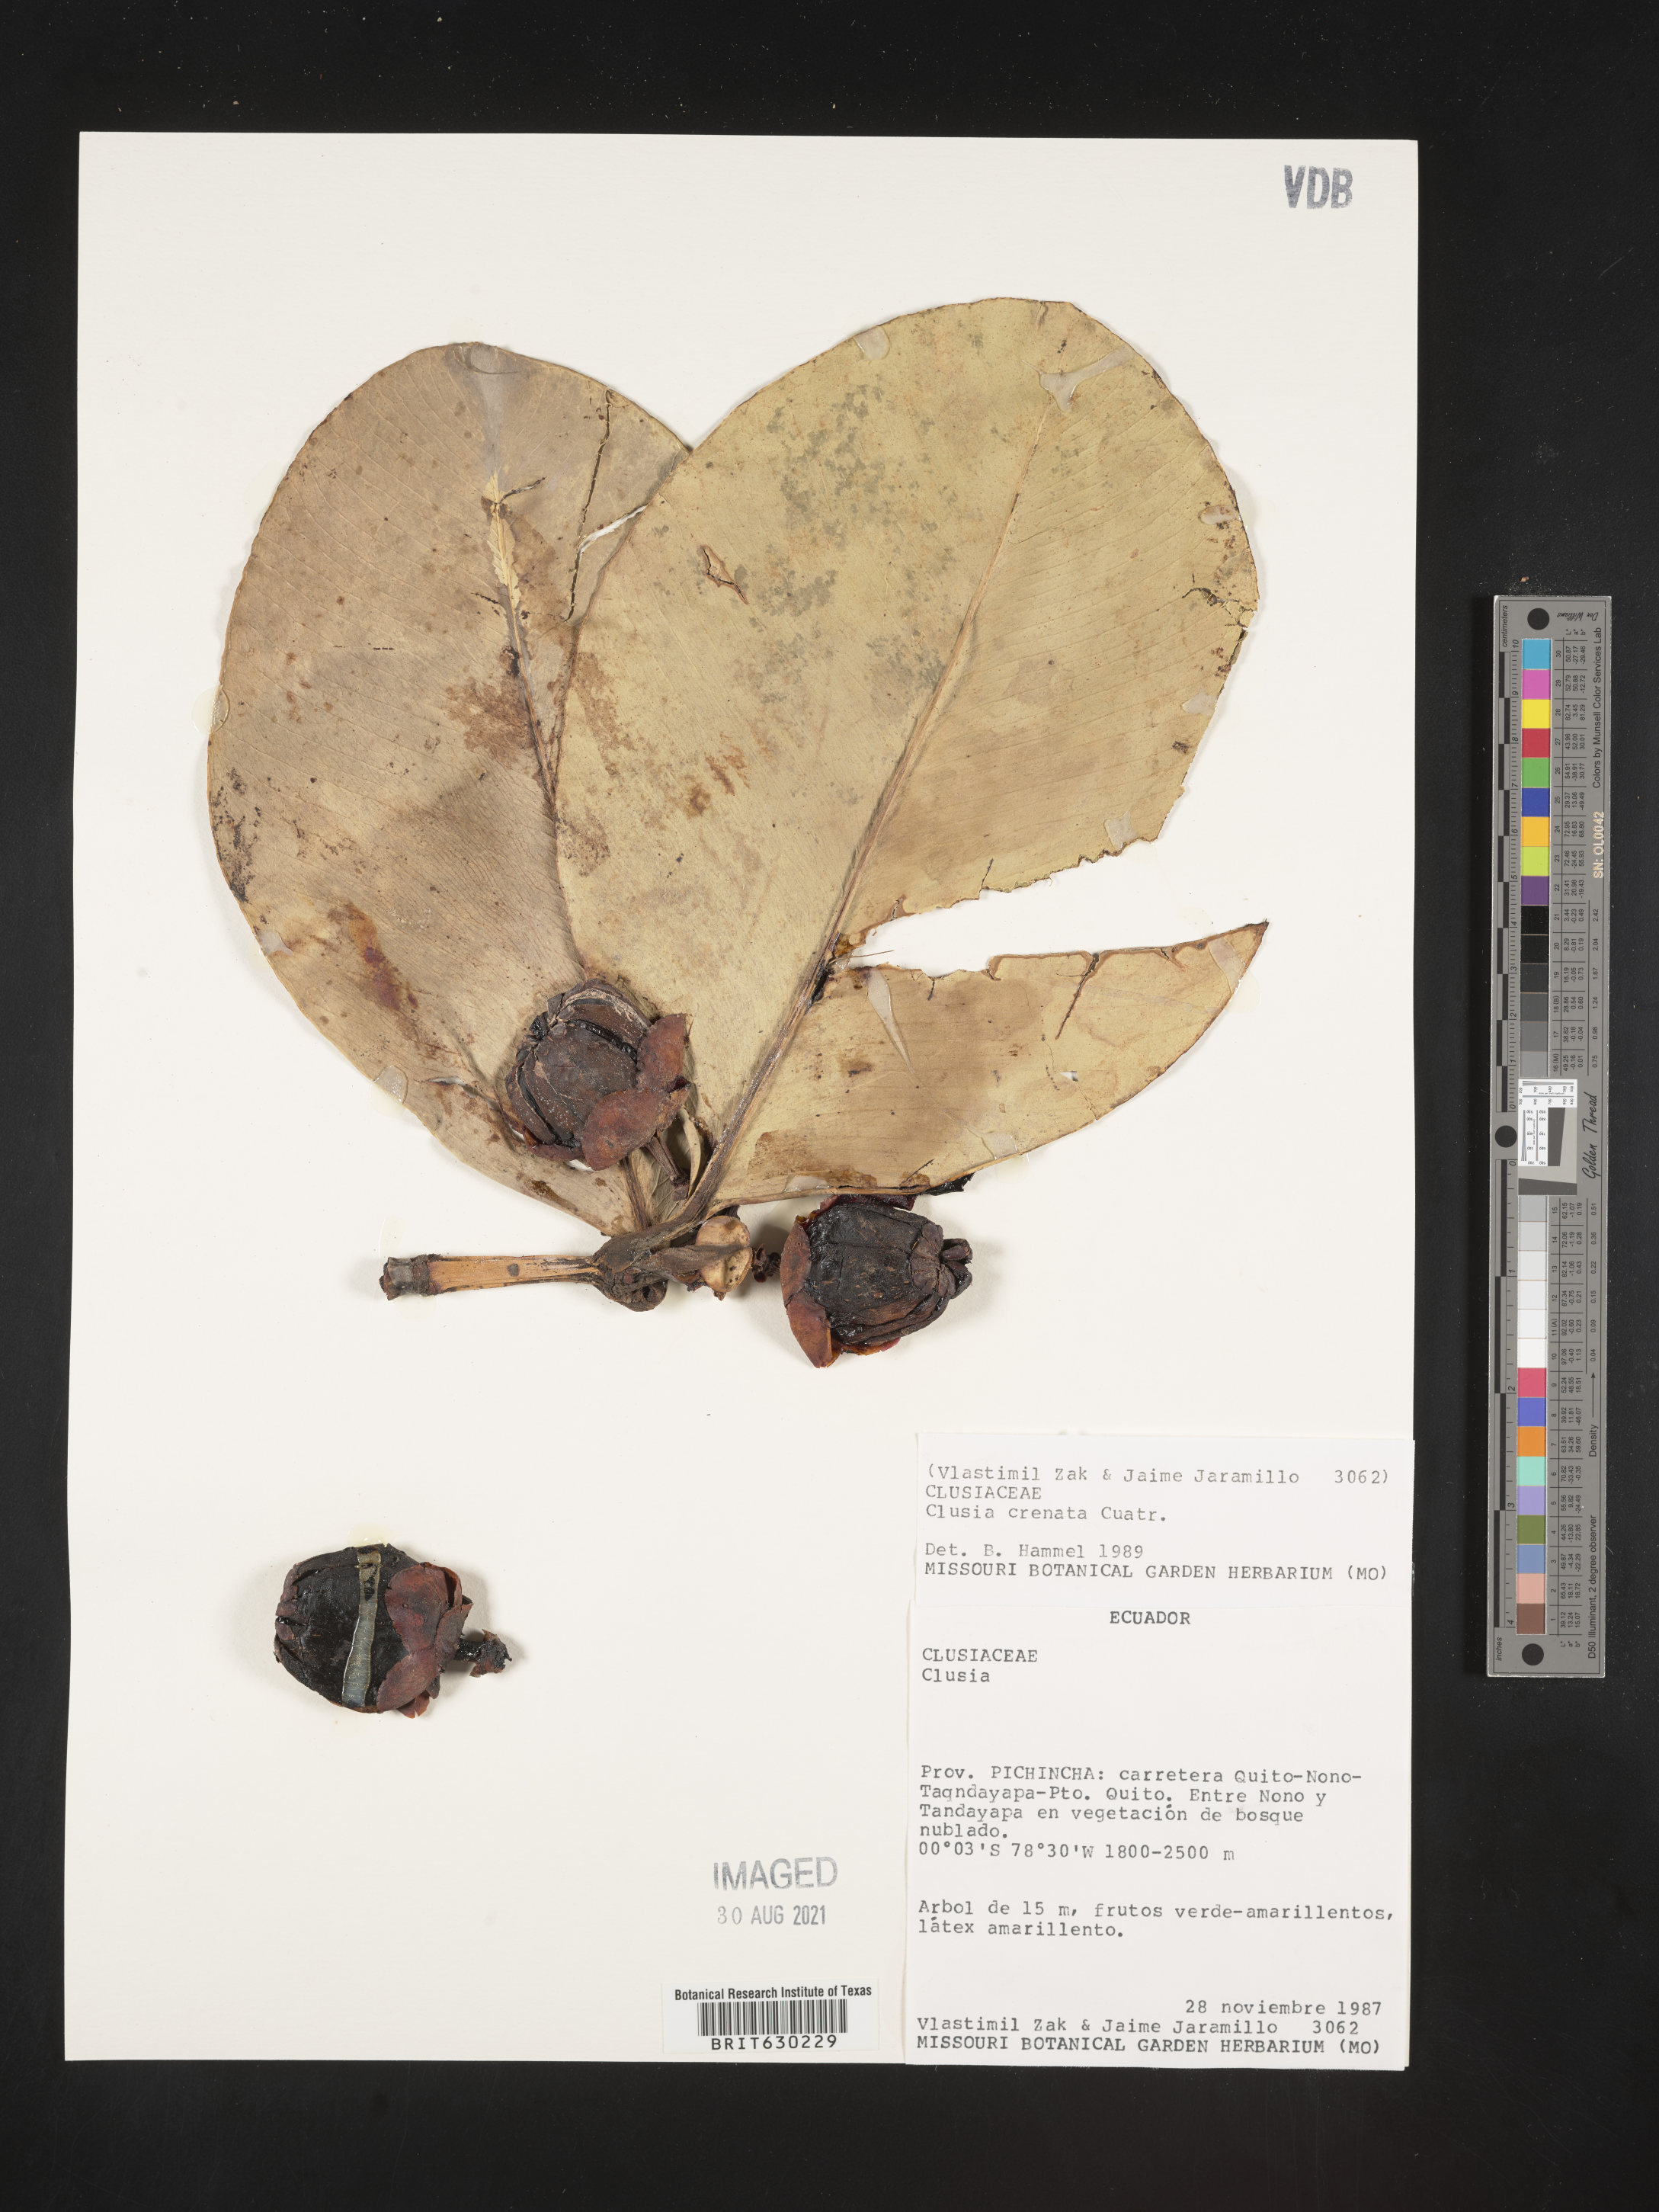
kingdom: Plantae
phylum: Tracheophyta
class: Magnoliopsida
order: Malpighiales
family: Clusiaceae
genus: Clusia
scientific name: Clusia crenata
